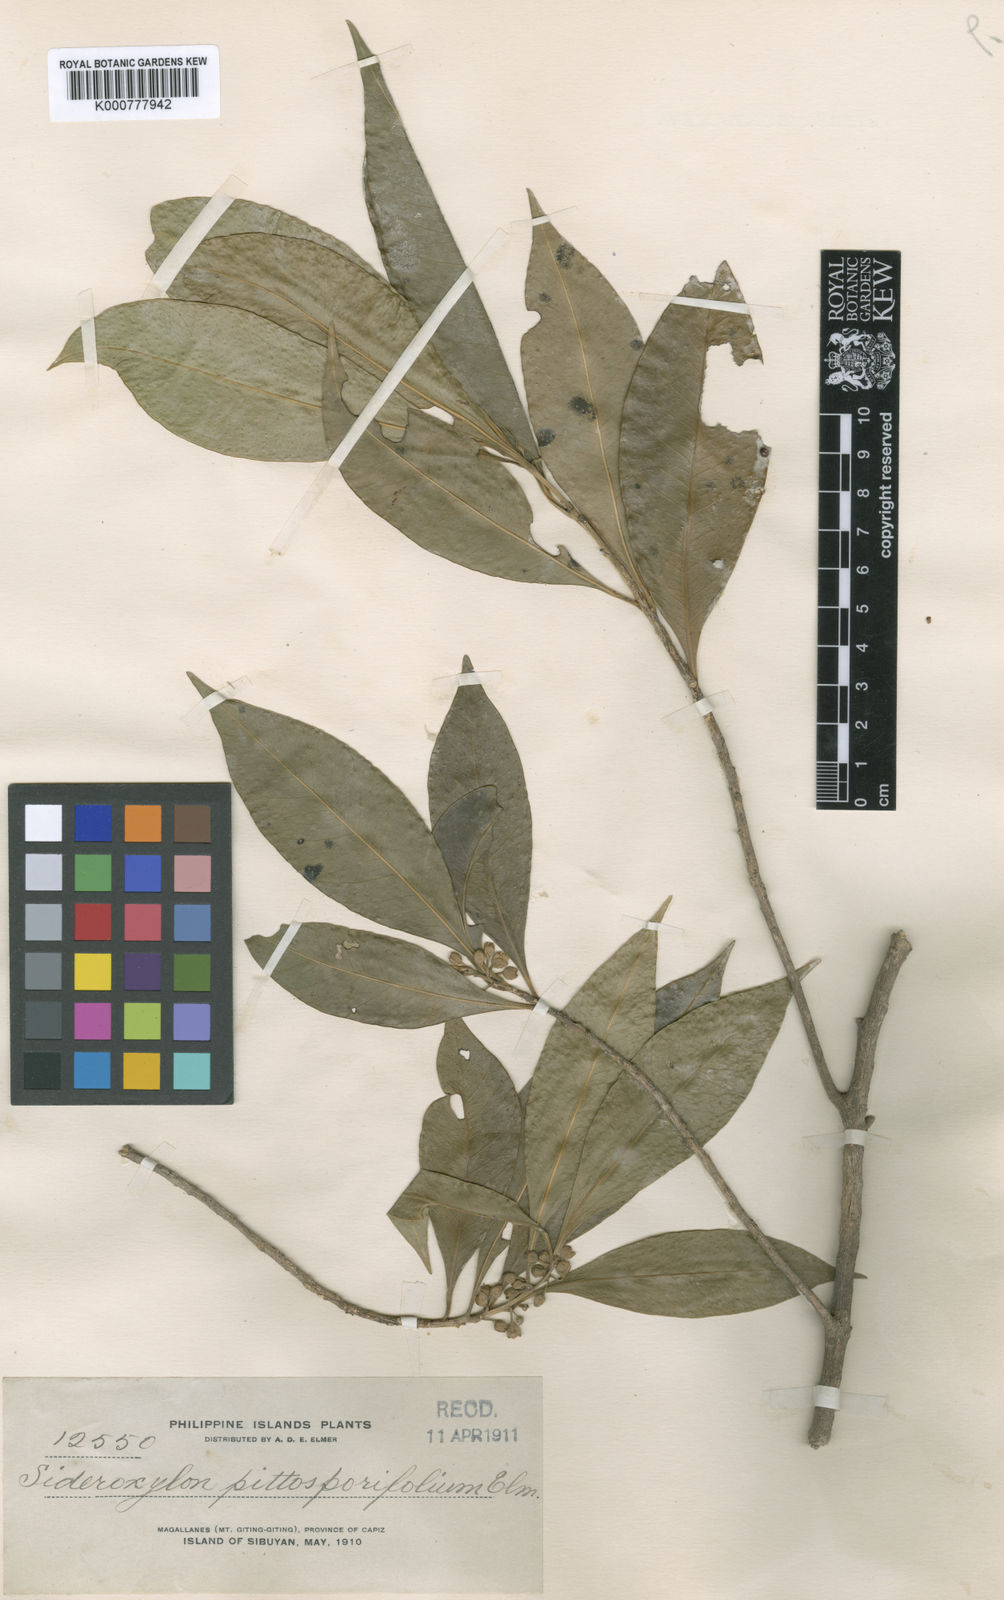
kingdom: Plantae
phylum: Tracheophyta
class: Magnoliopsida
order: Ericales
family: Sapotaceae
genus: Planchonella
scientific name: Planchonella chartacea
